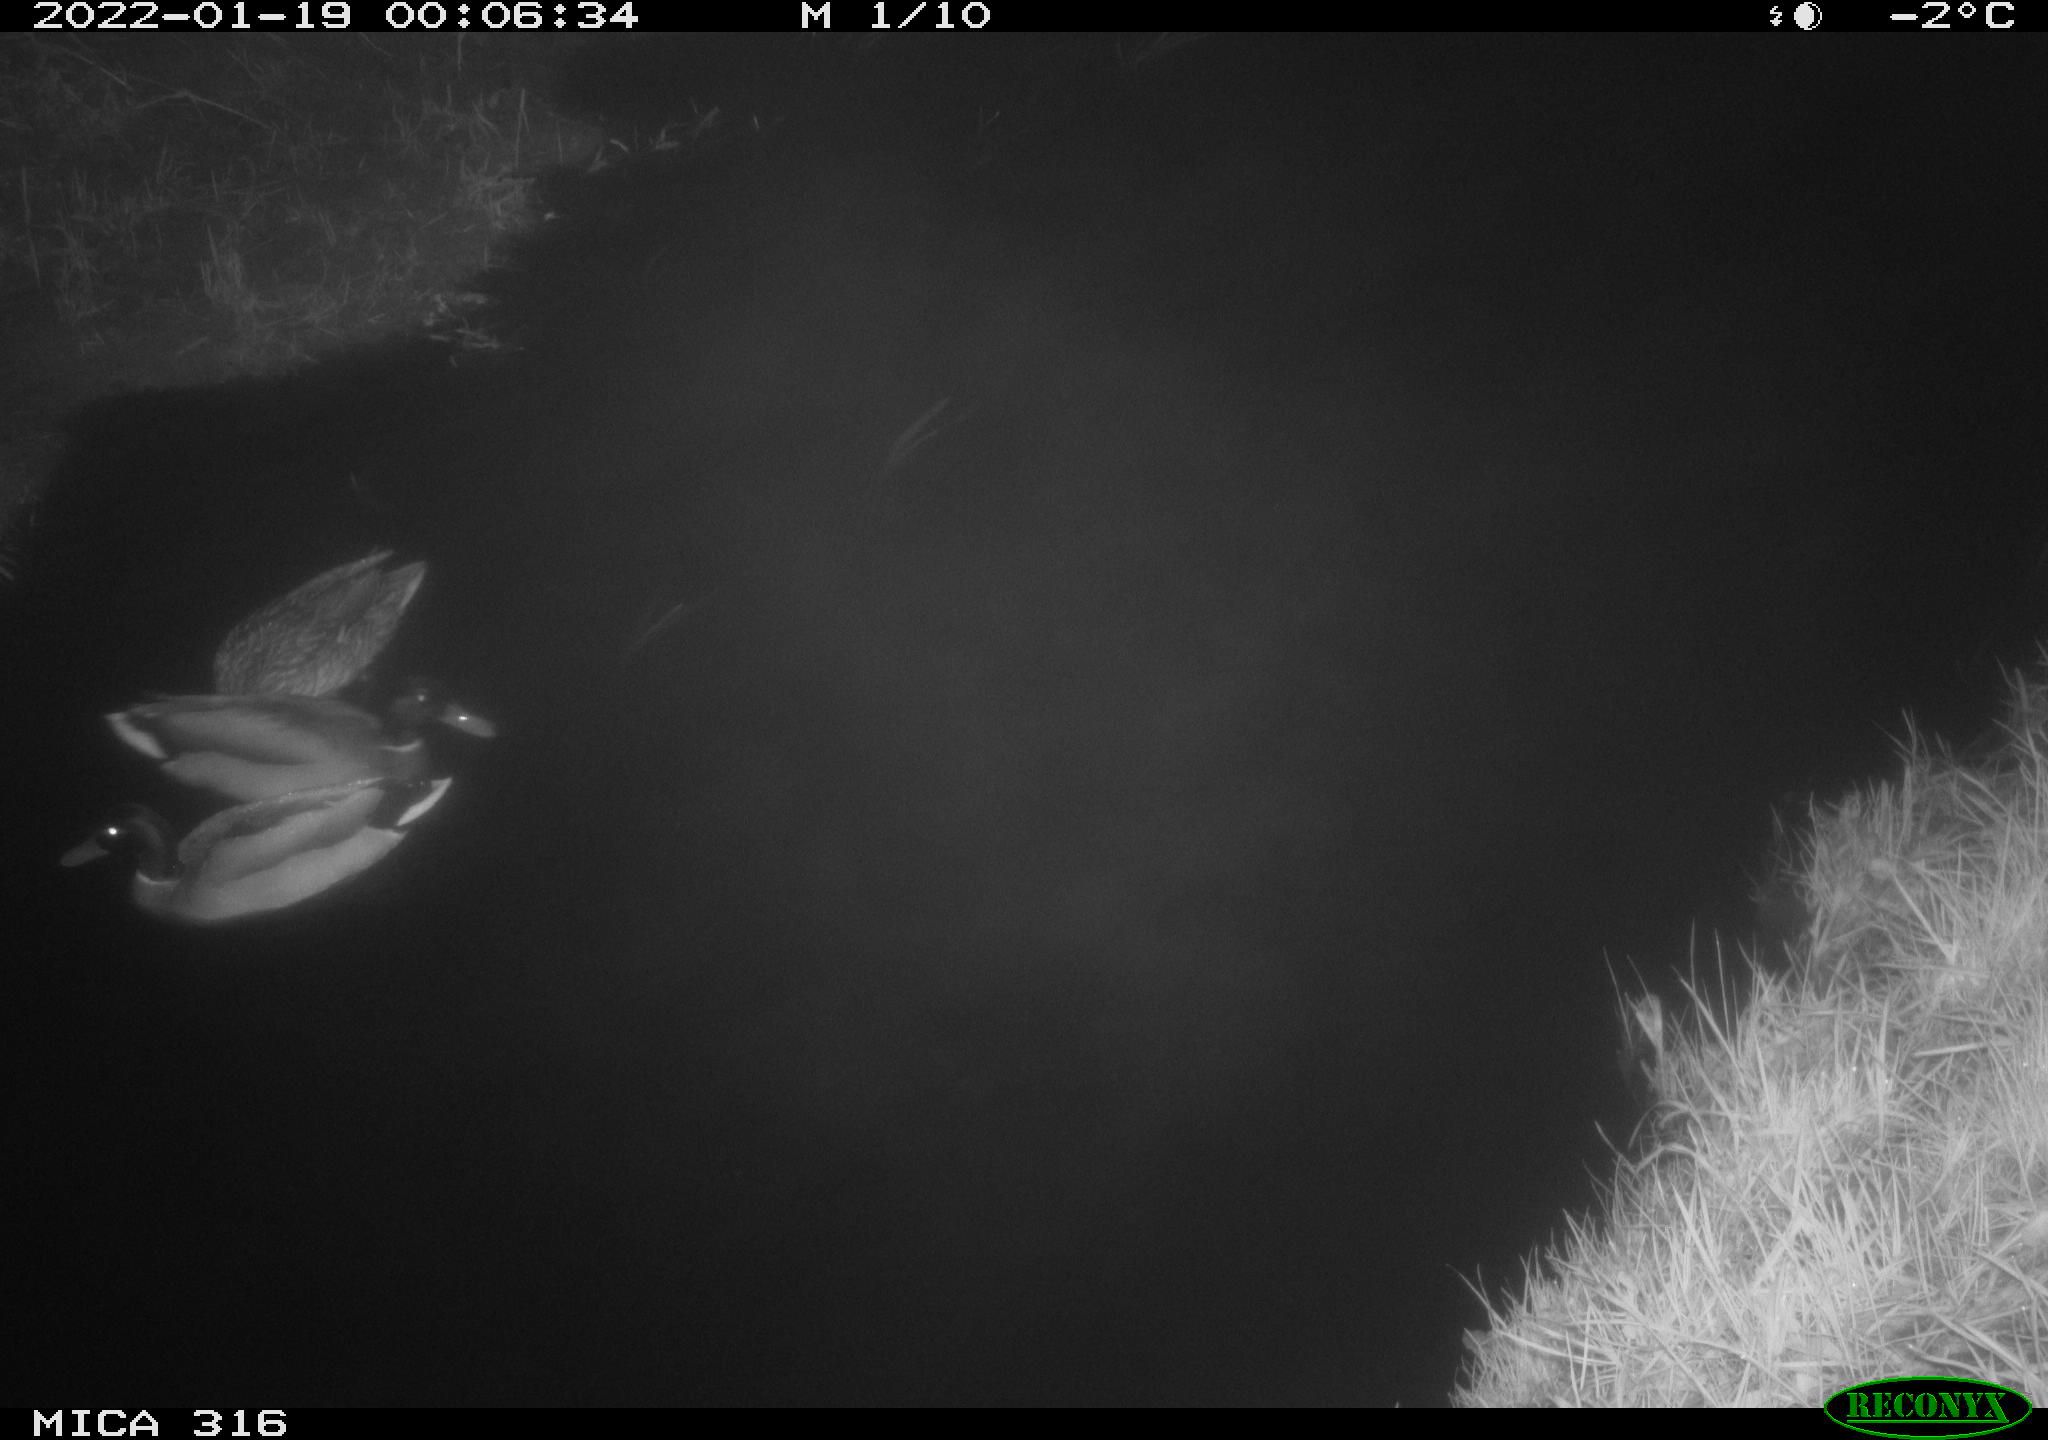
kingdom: Animalia
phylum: Chordata
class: Aves
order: Anseriformes
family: Anatidae
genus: Anas
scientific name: Anas
